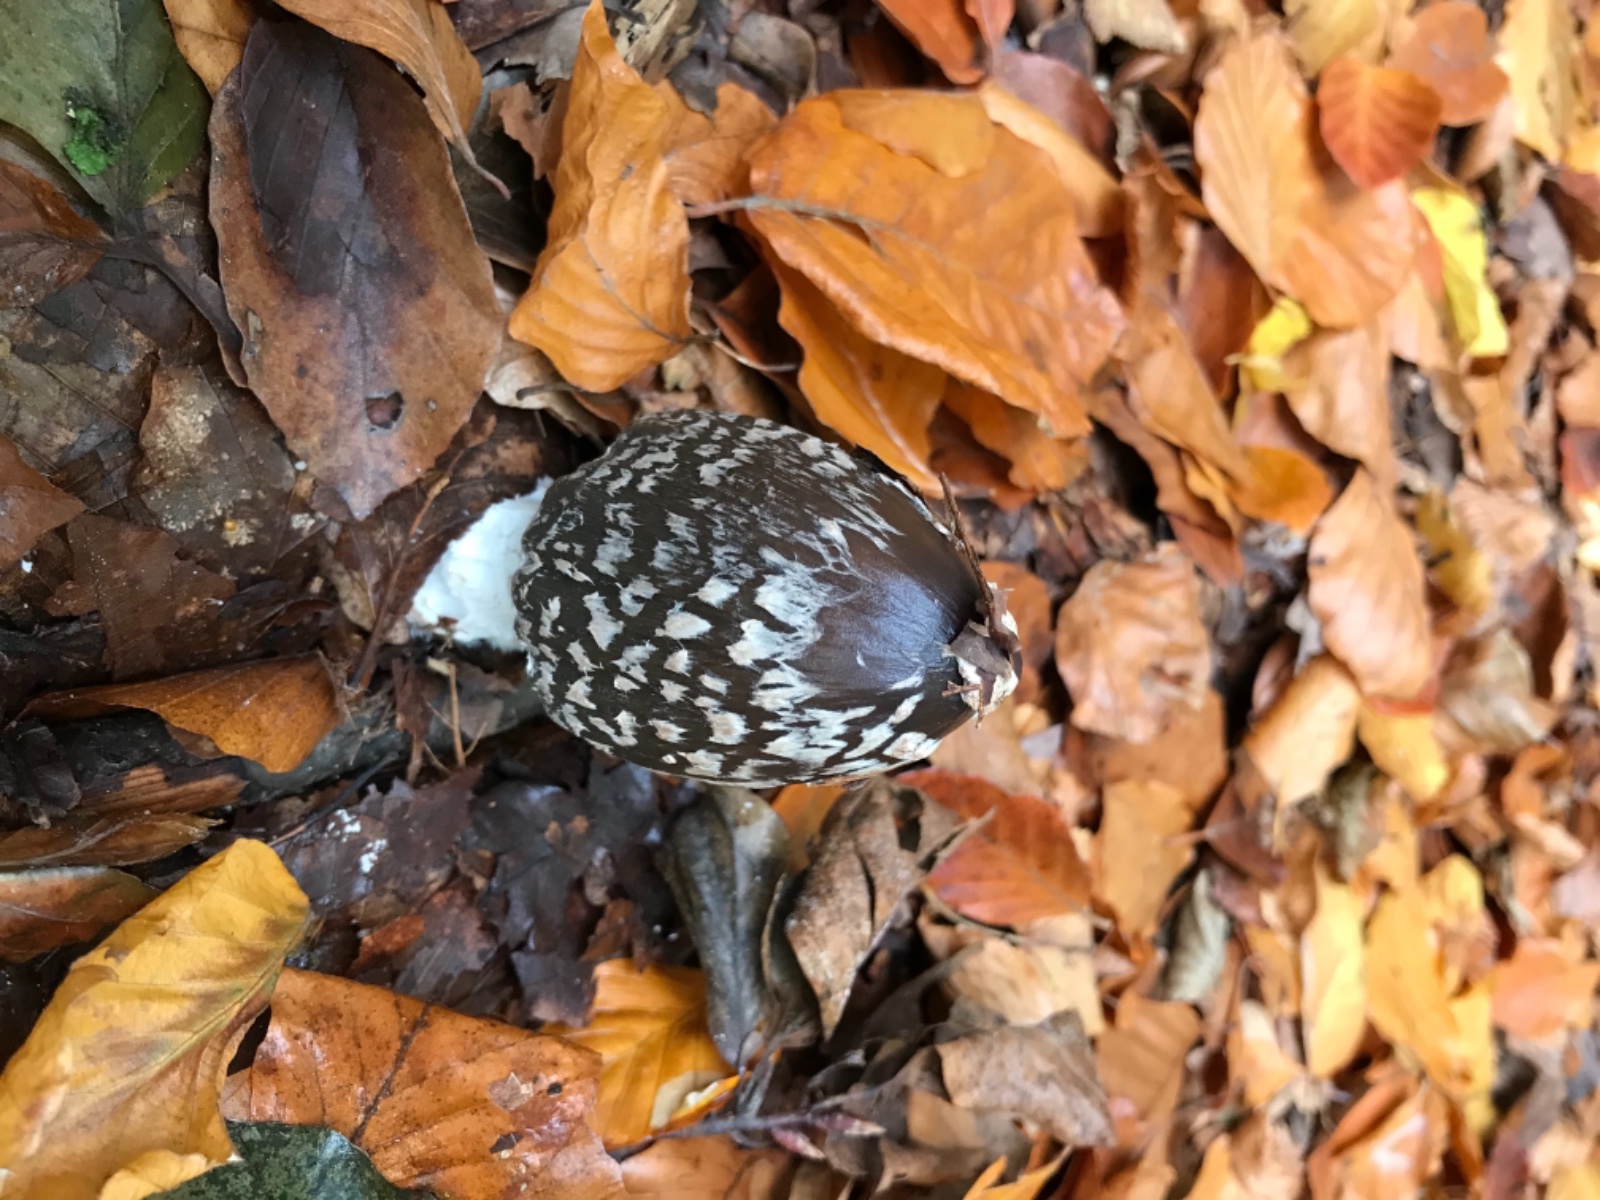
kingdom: Fungi
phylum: Basidiomycota
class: Agaricomycetes
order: Agaricales
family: Psathyrellaceae
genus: Coprinopsis
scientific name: Coprinopsis picacea
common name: skade-blækhat
